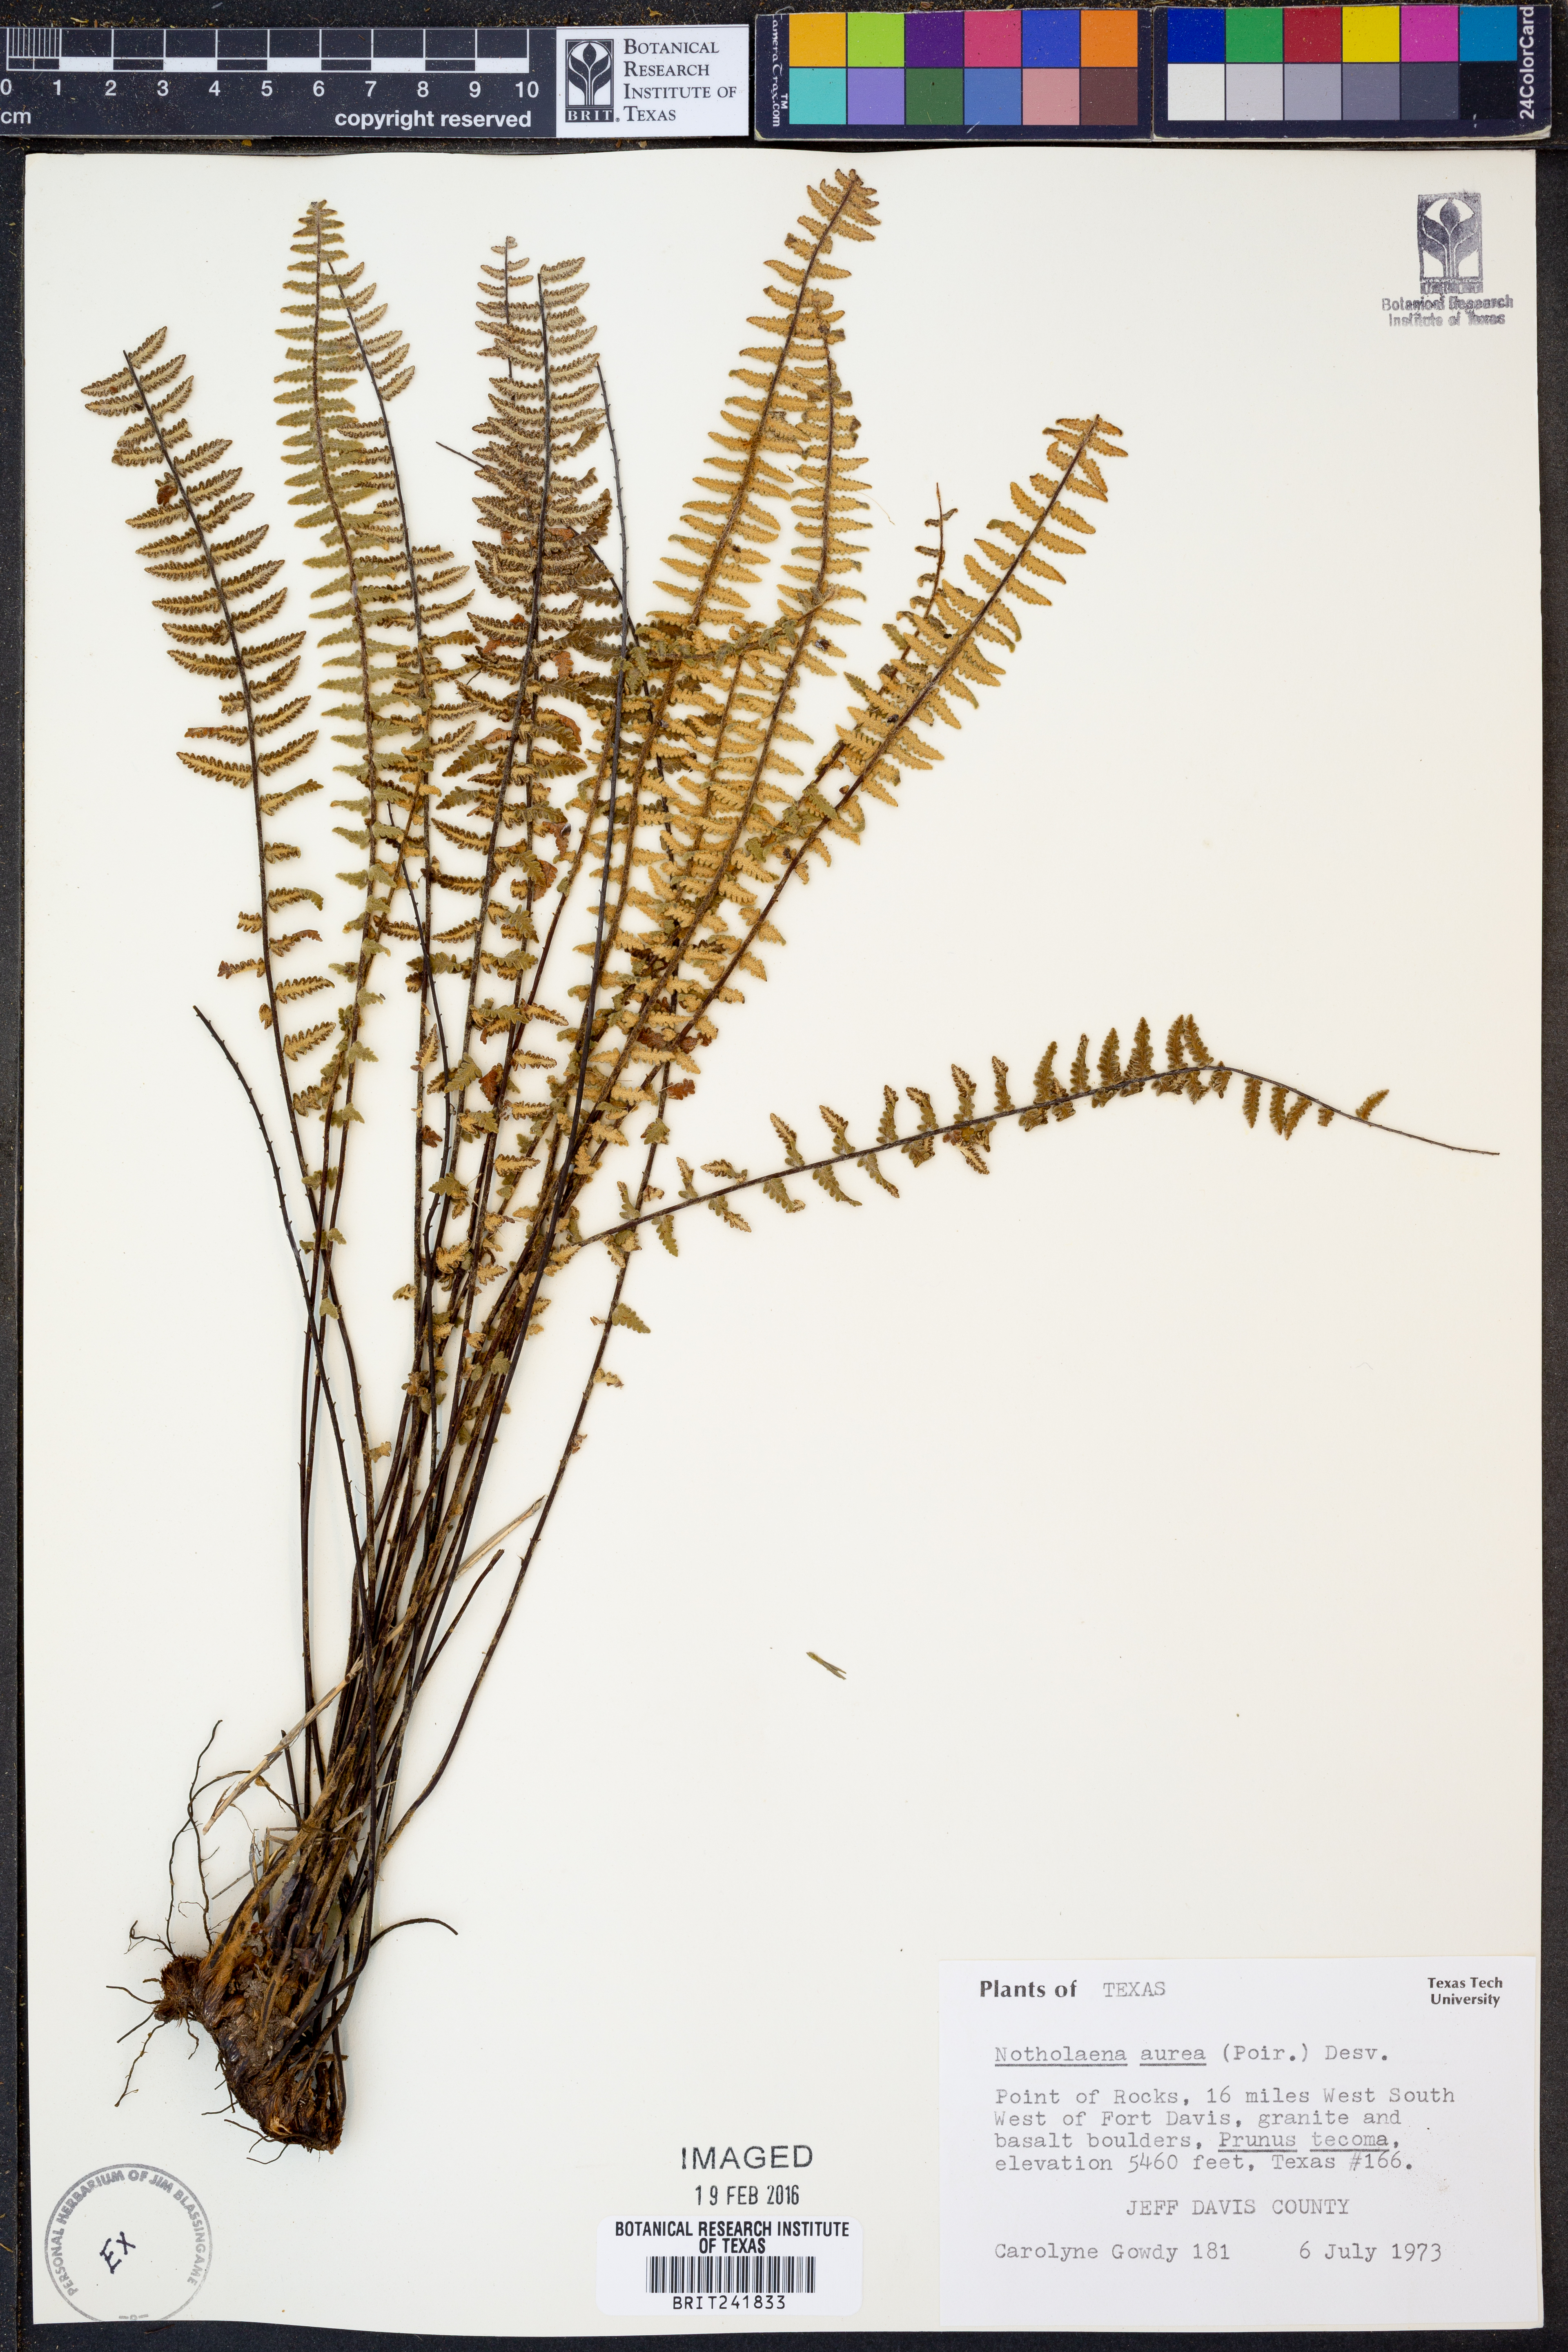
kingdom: Plantae
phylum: Tracheophyta
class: Polypodiopsida
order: Polypodiales
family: Pteridaceae
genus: Myriopteris
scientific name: Myriopteris aurea
